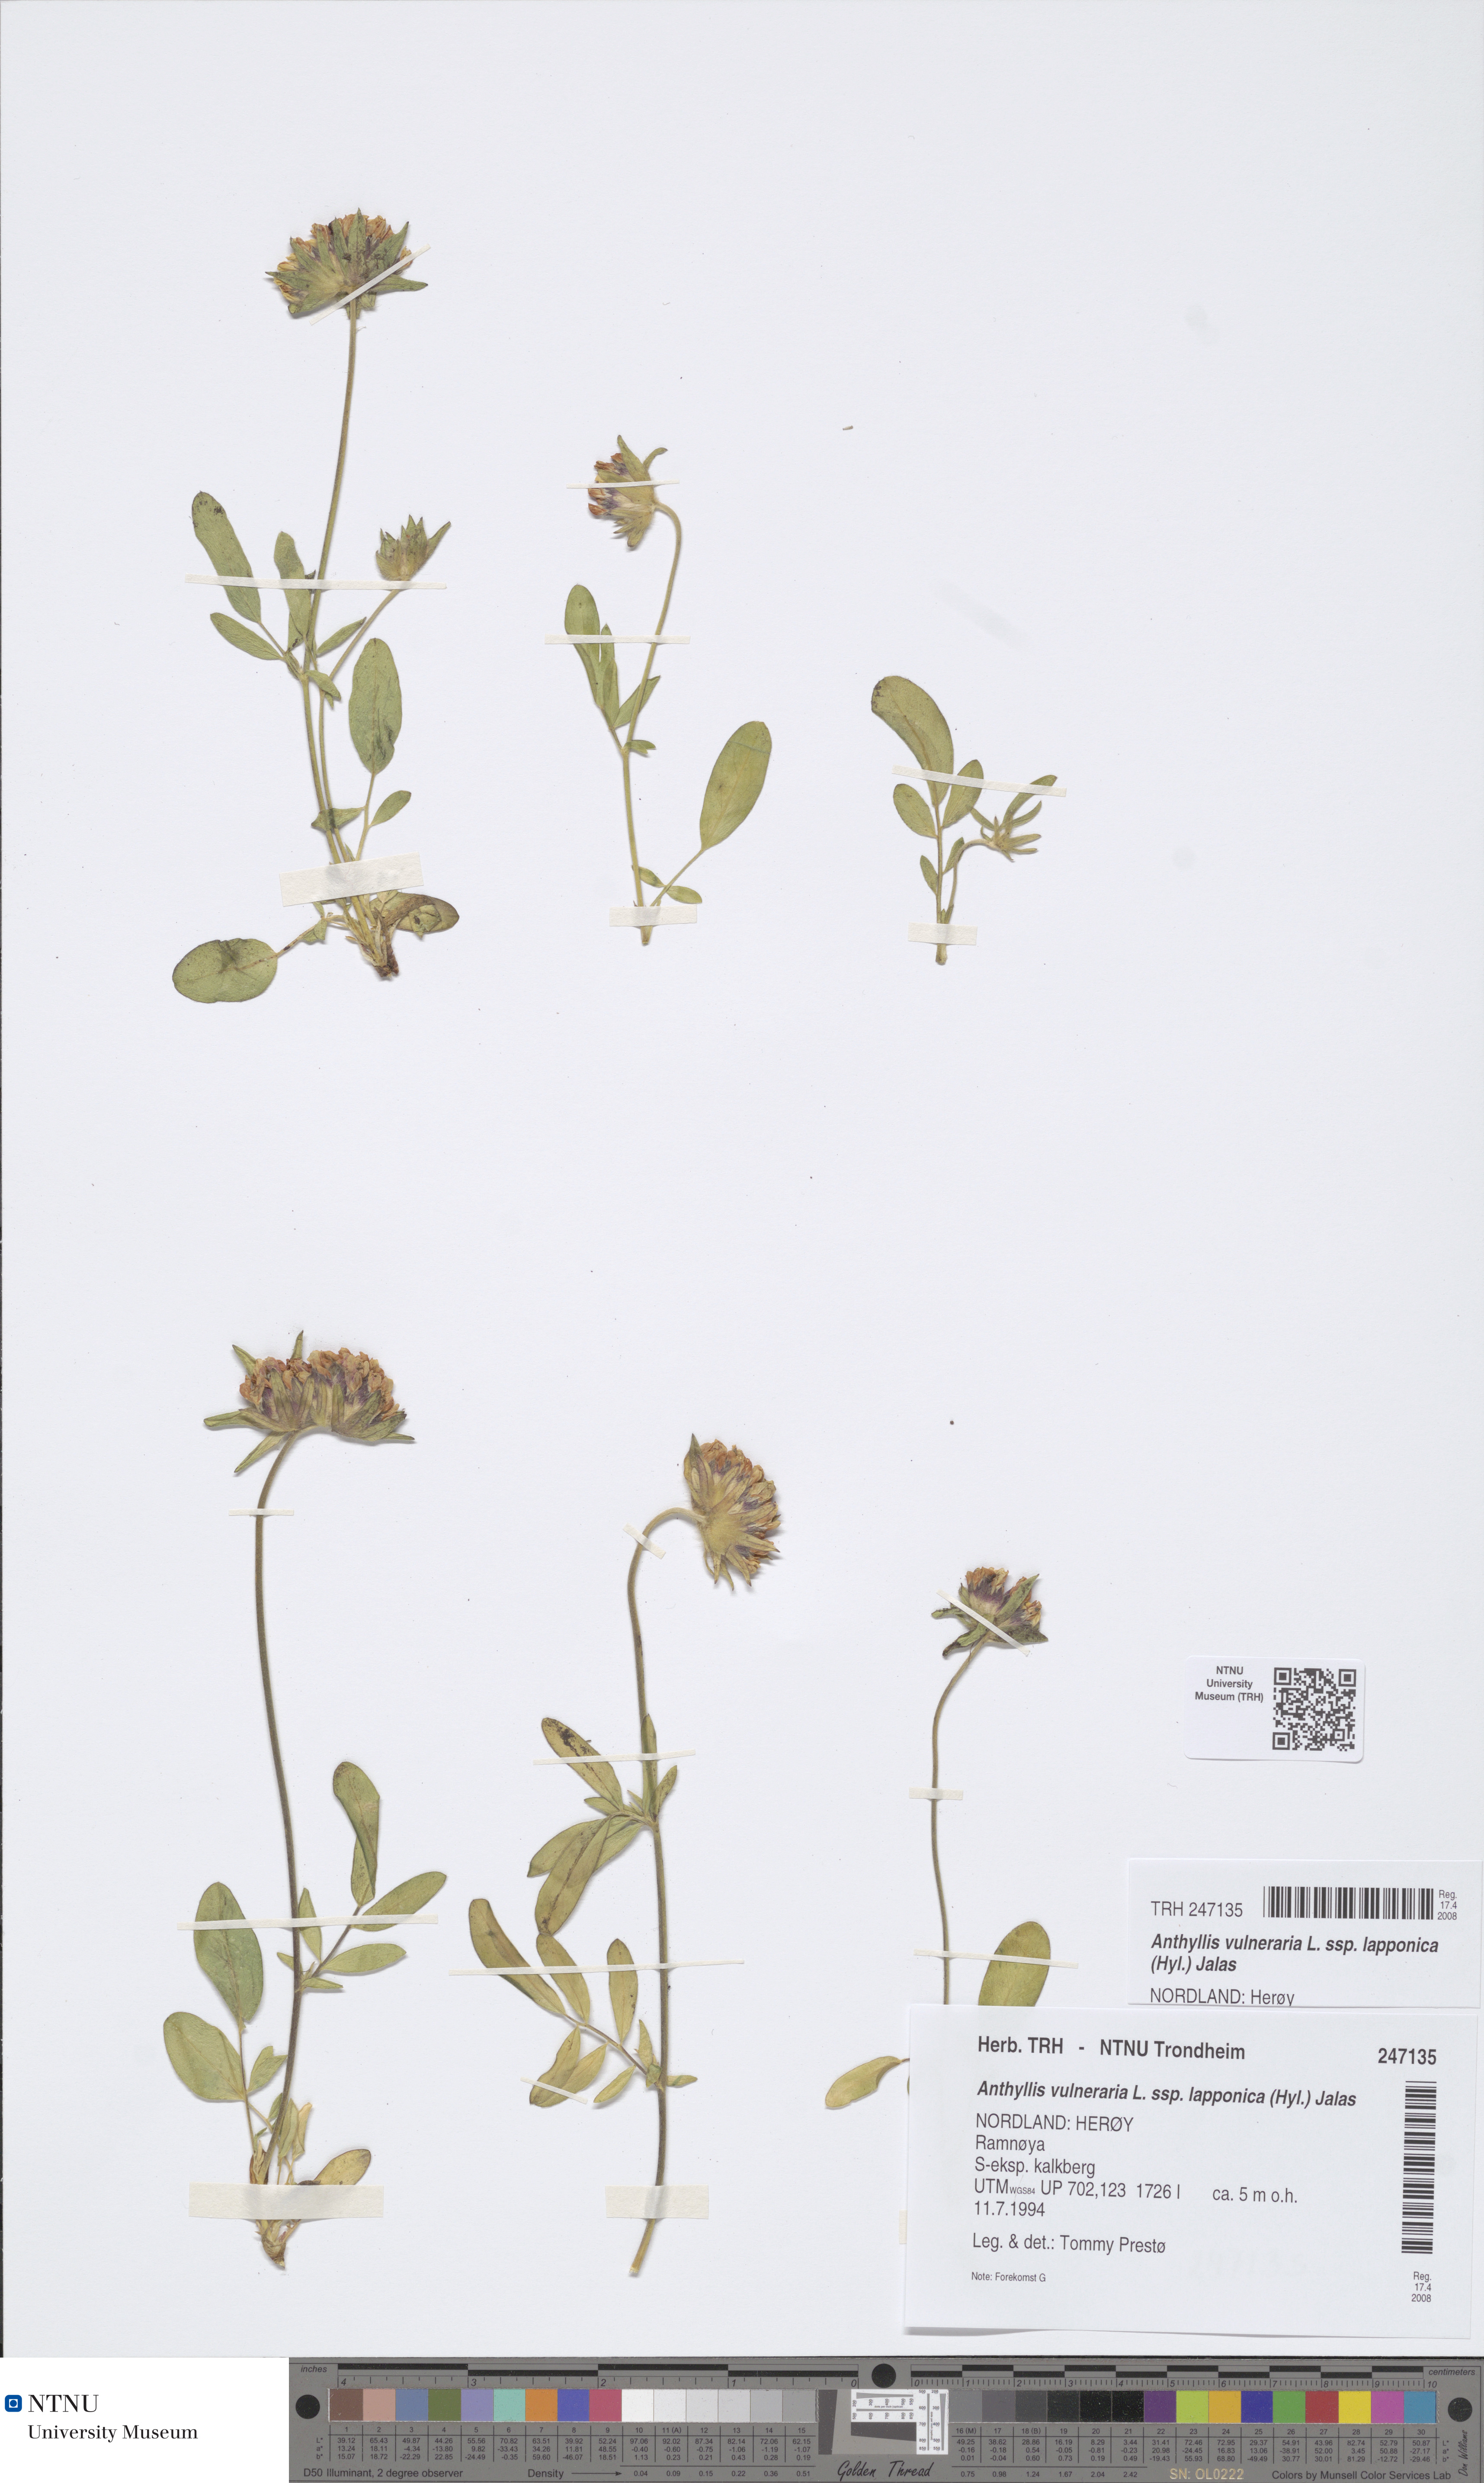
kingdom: Plantae
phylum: Tracheophyta
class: Magnoliopsida
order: Fabales
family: Fabaceae
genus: Anthyllis
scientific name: Anthyllis vulneraria
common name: Kidney vetch
